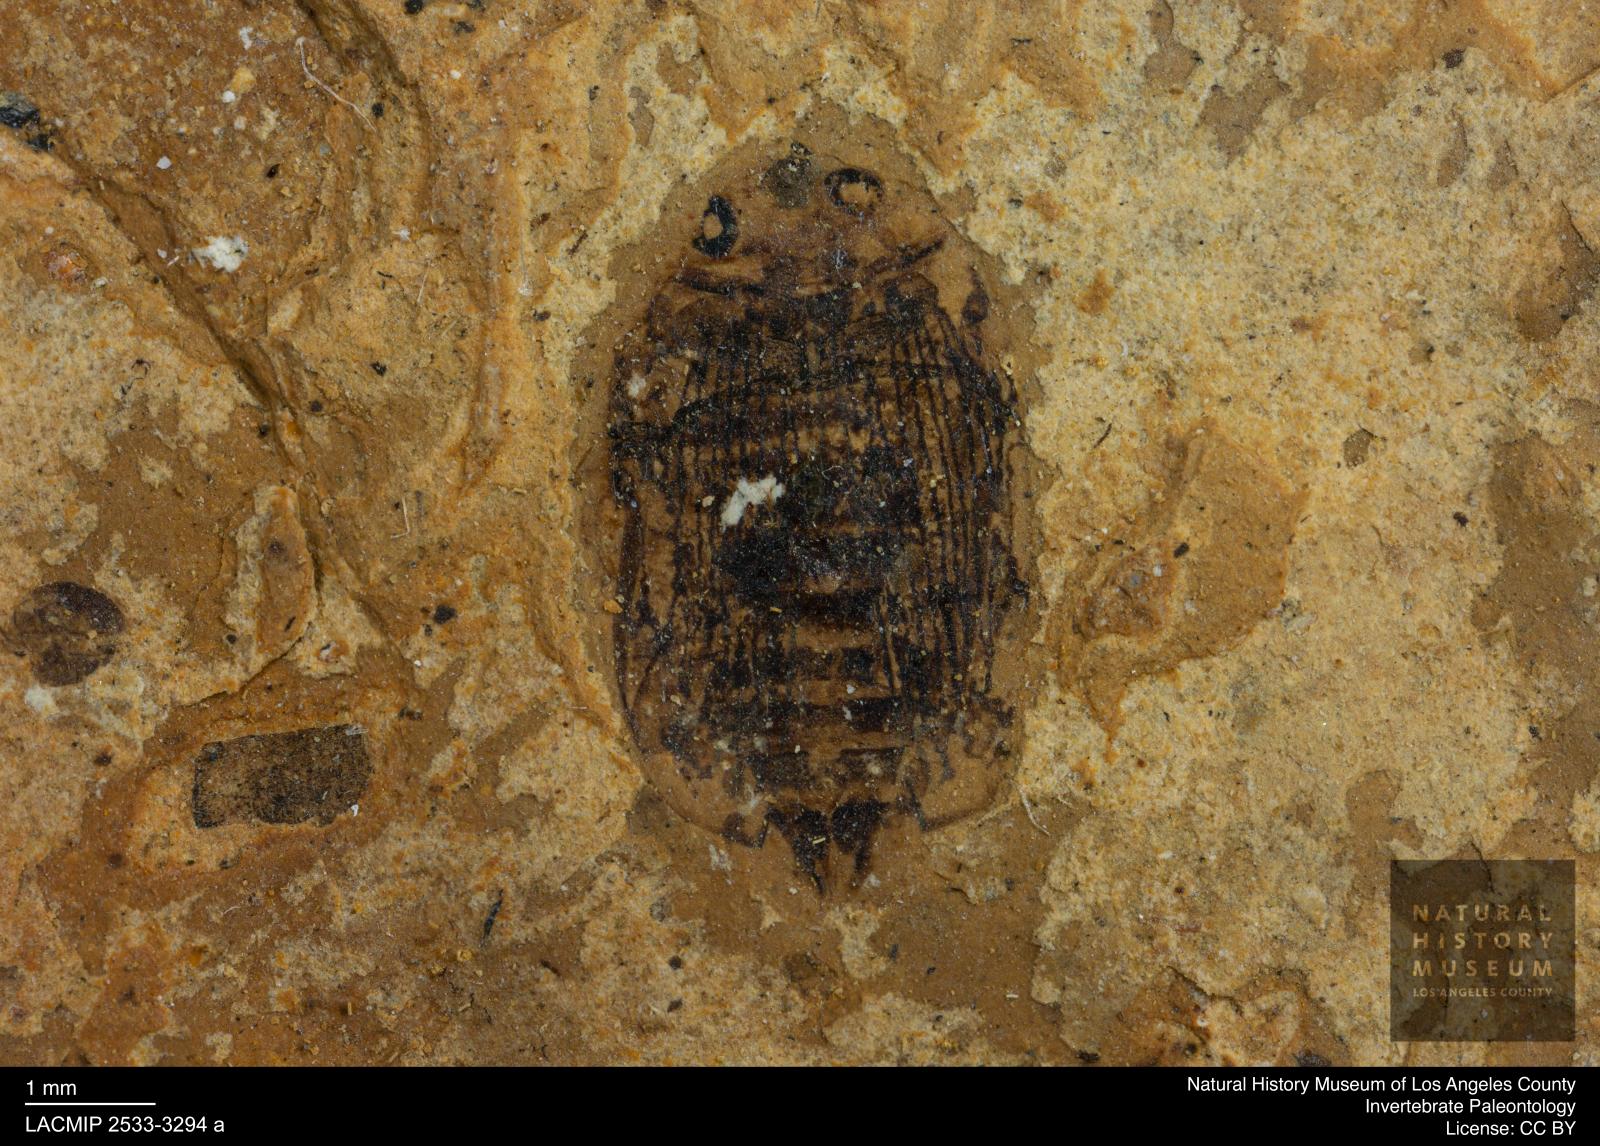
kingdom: Animalia
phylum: Arthropoda
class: Insecta
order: Coleoptera
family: Dytiscidae
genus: Laccophilus
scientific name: Laccophilus Palaeogyrinus strigatus
